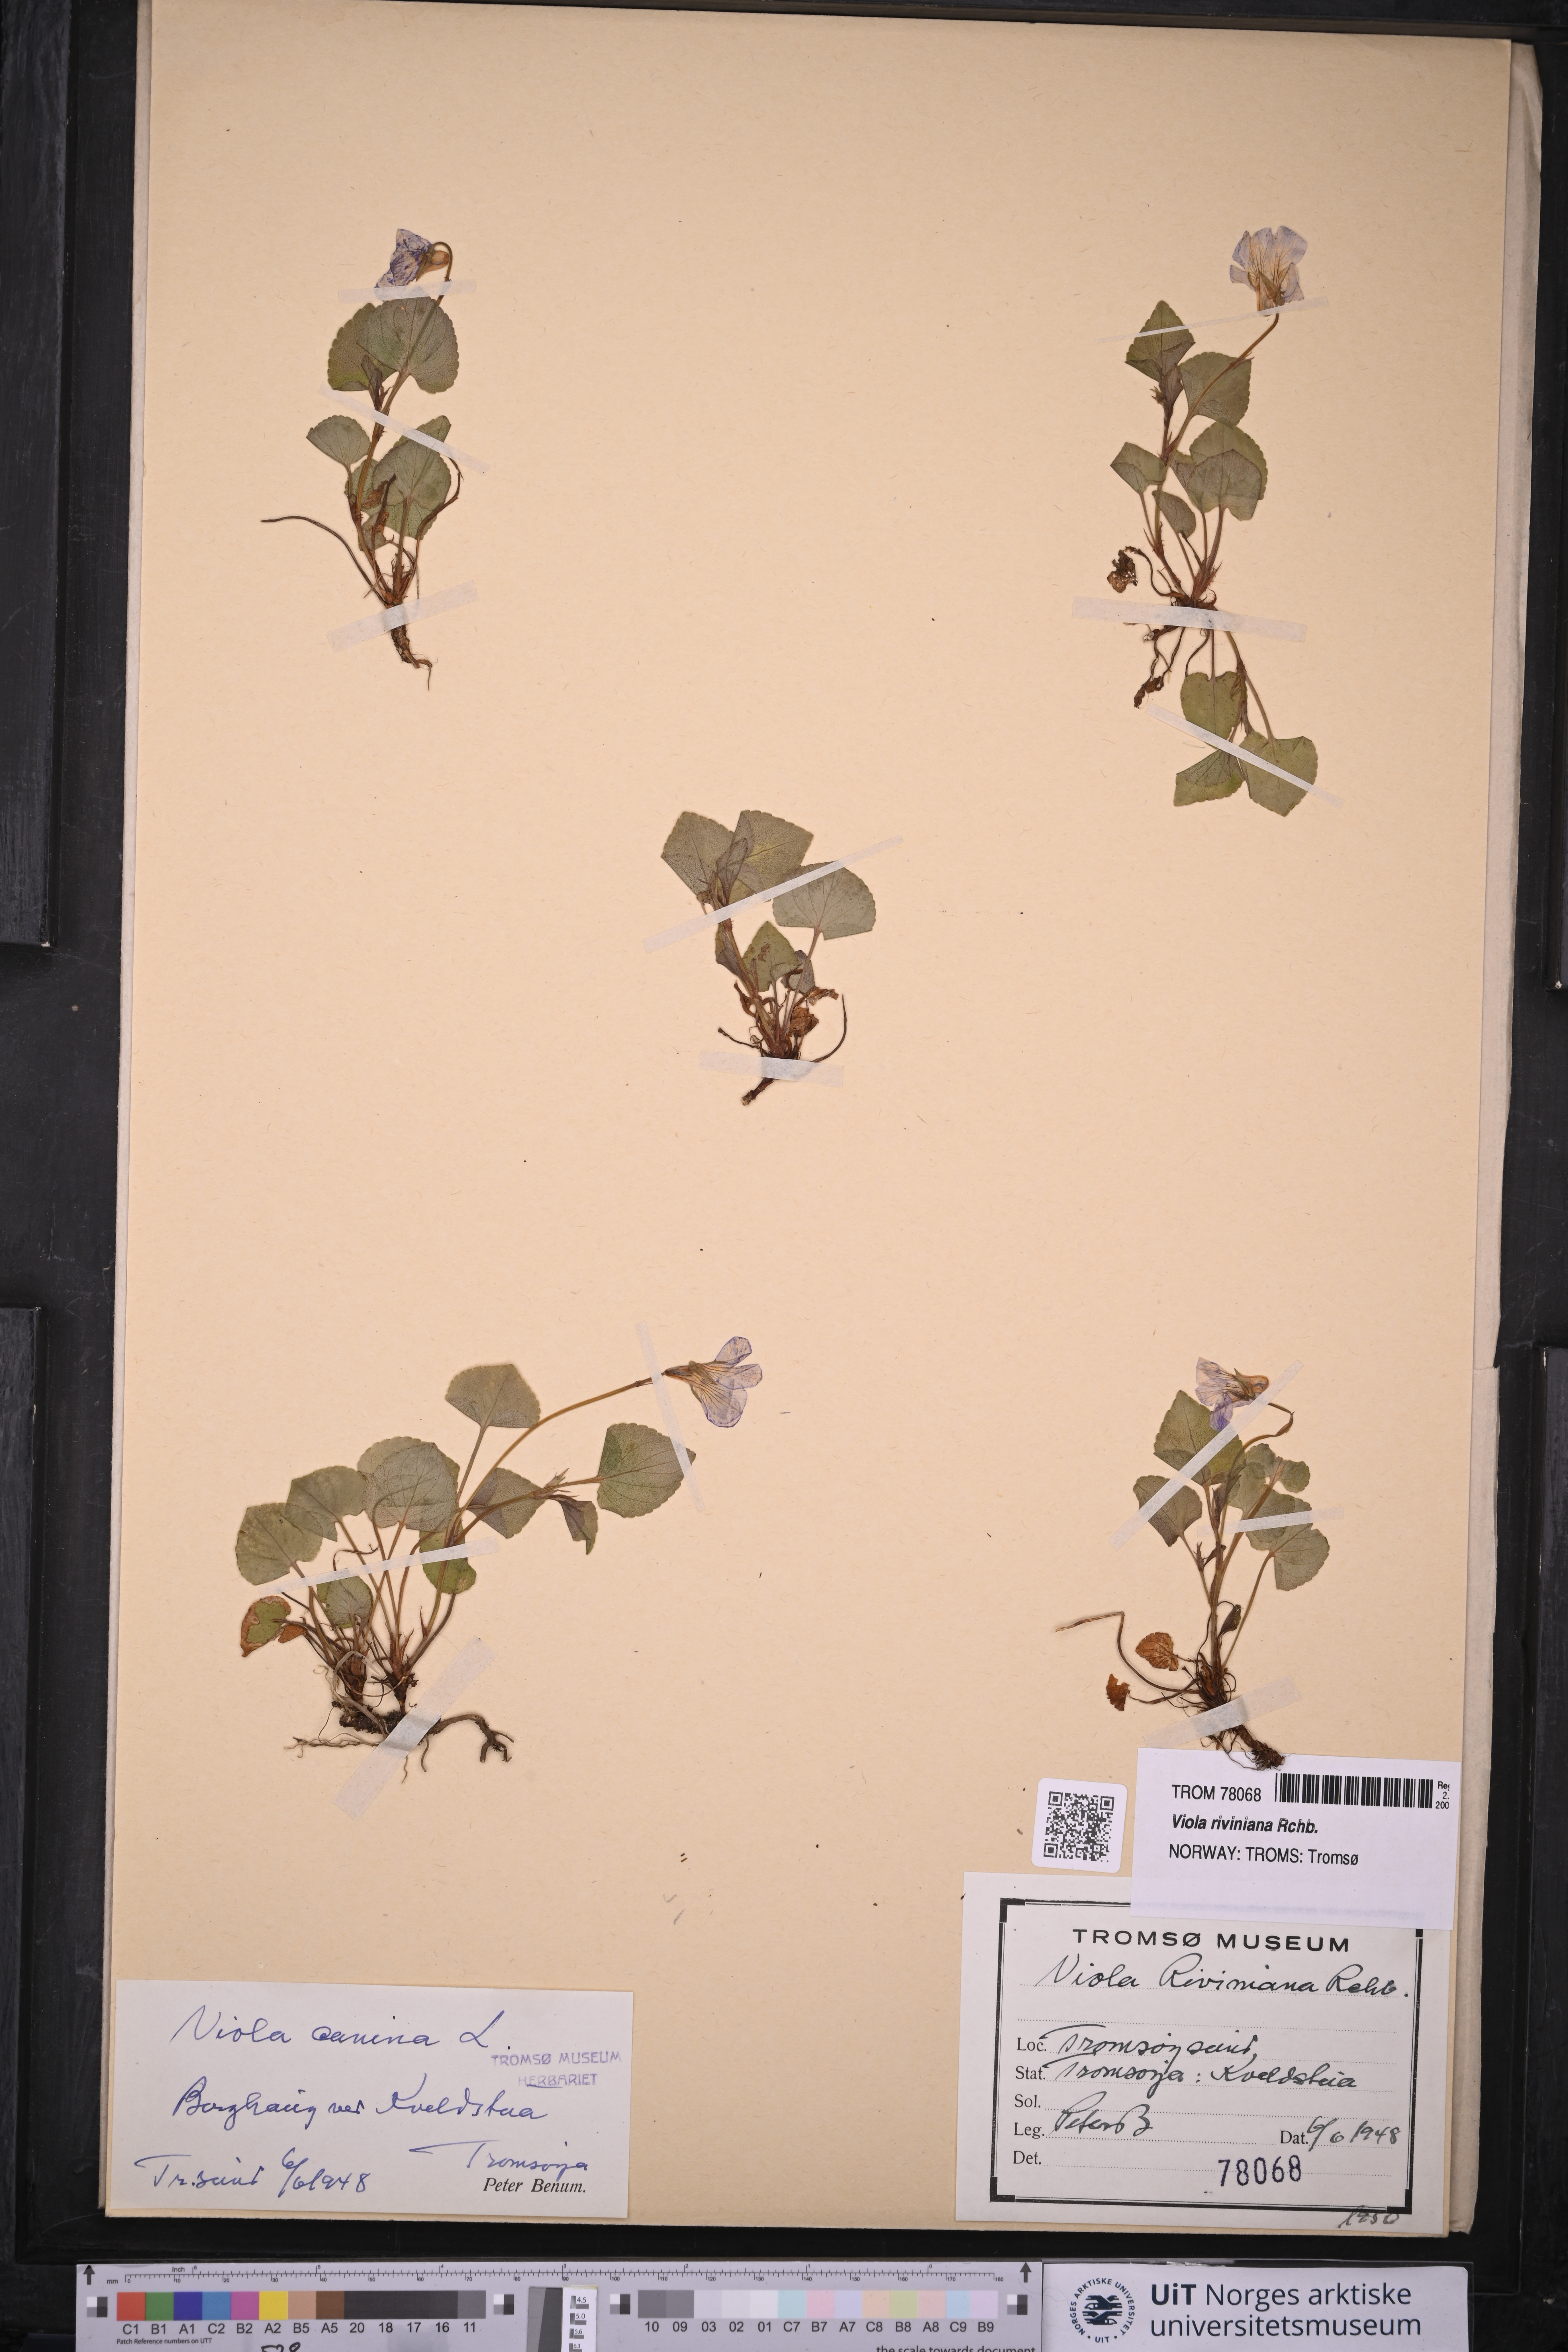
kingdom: Plantae
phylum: Tracheophyta
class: Magnoliopsida
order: Malpighiales
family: Violaceae
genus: Viola
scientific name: Viola riviniana
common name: Common dog-violet
